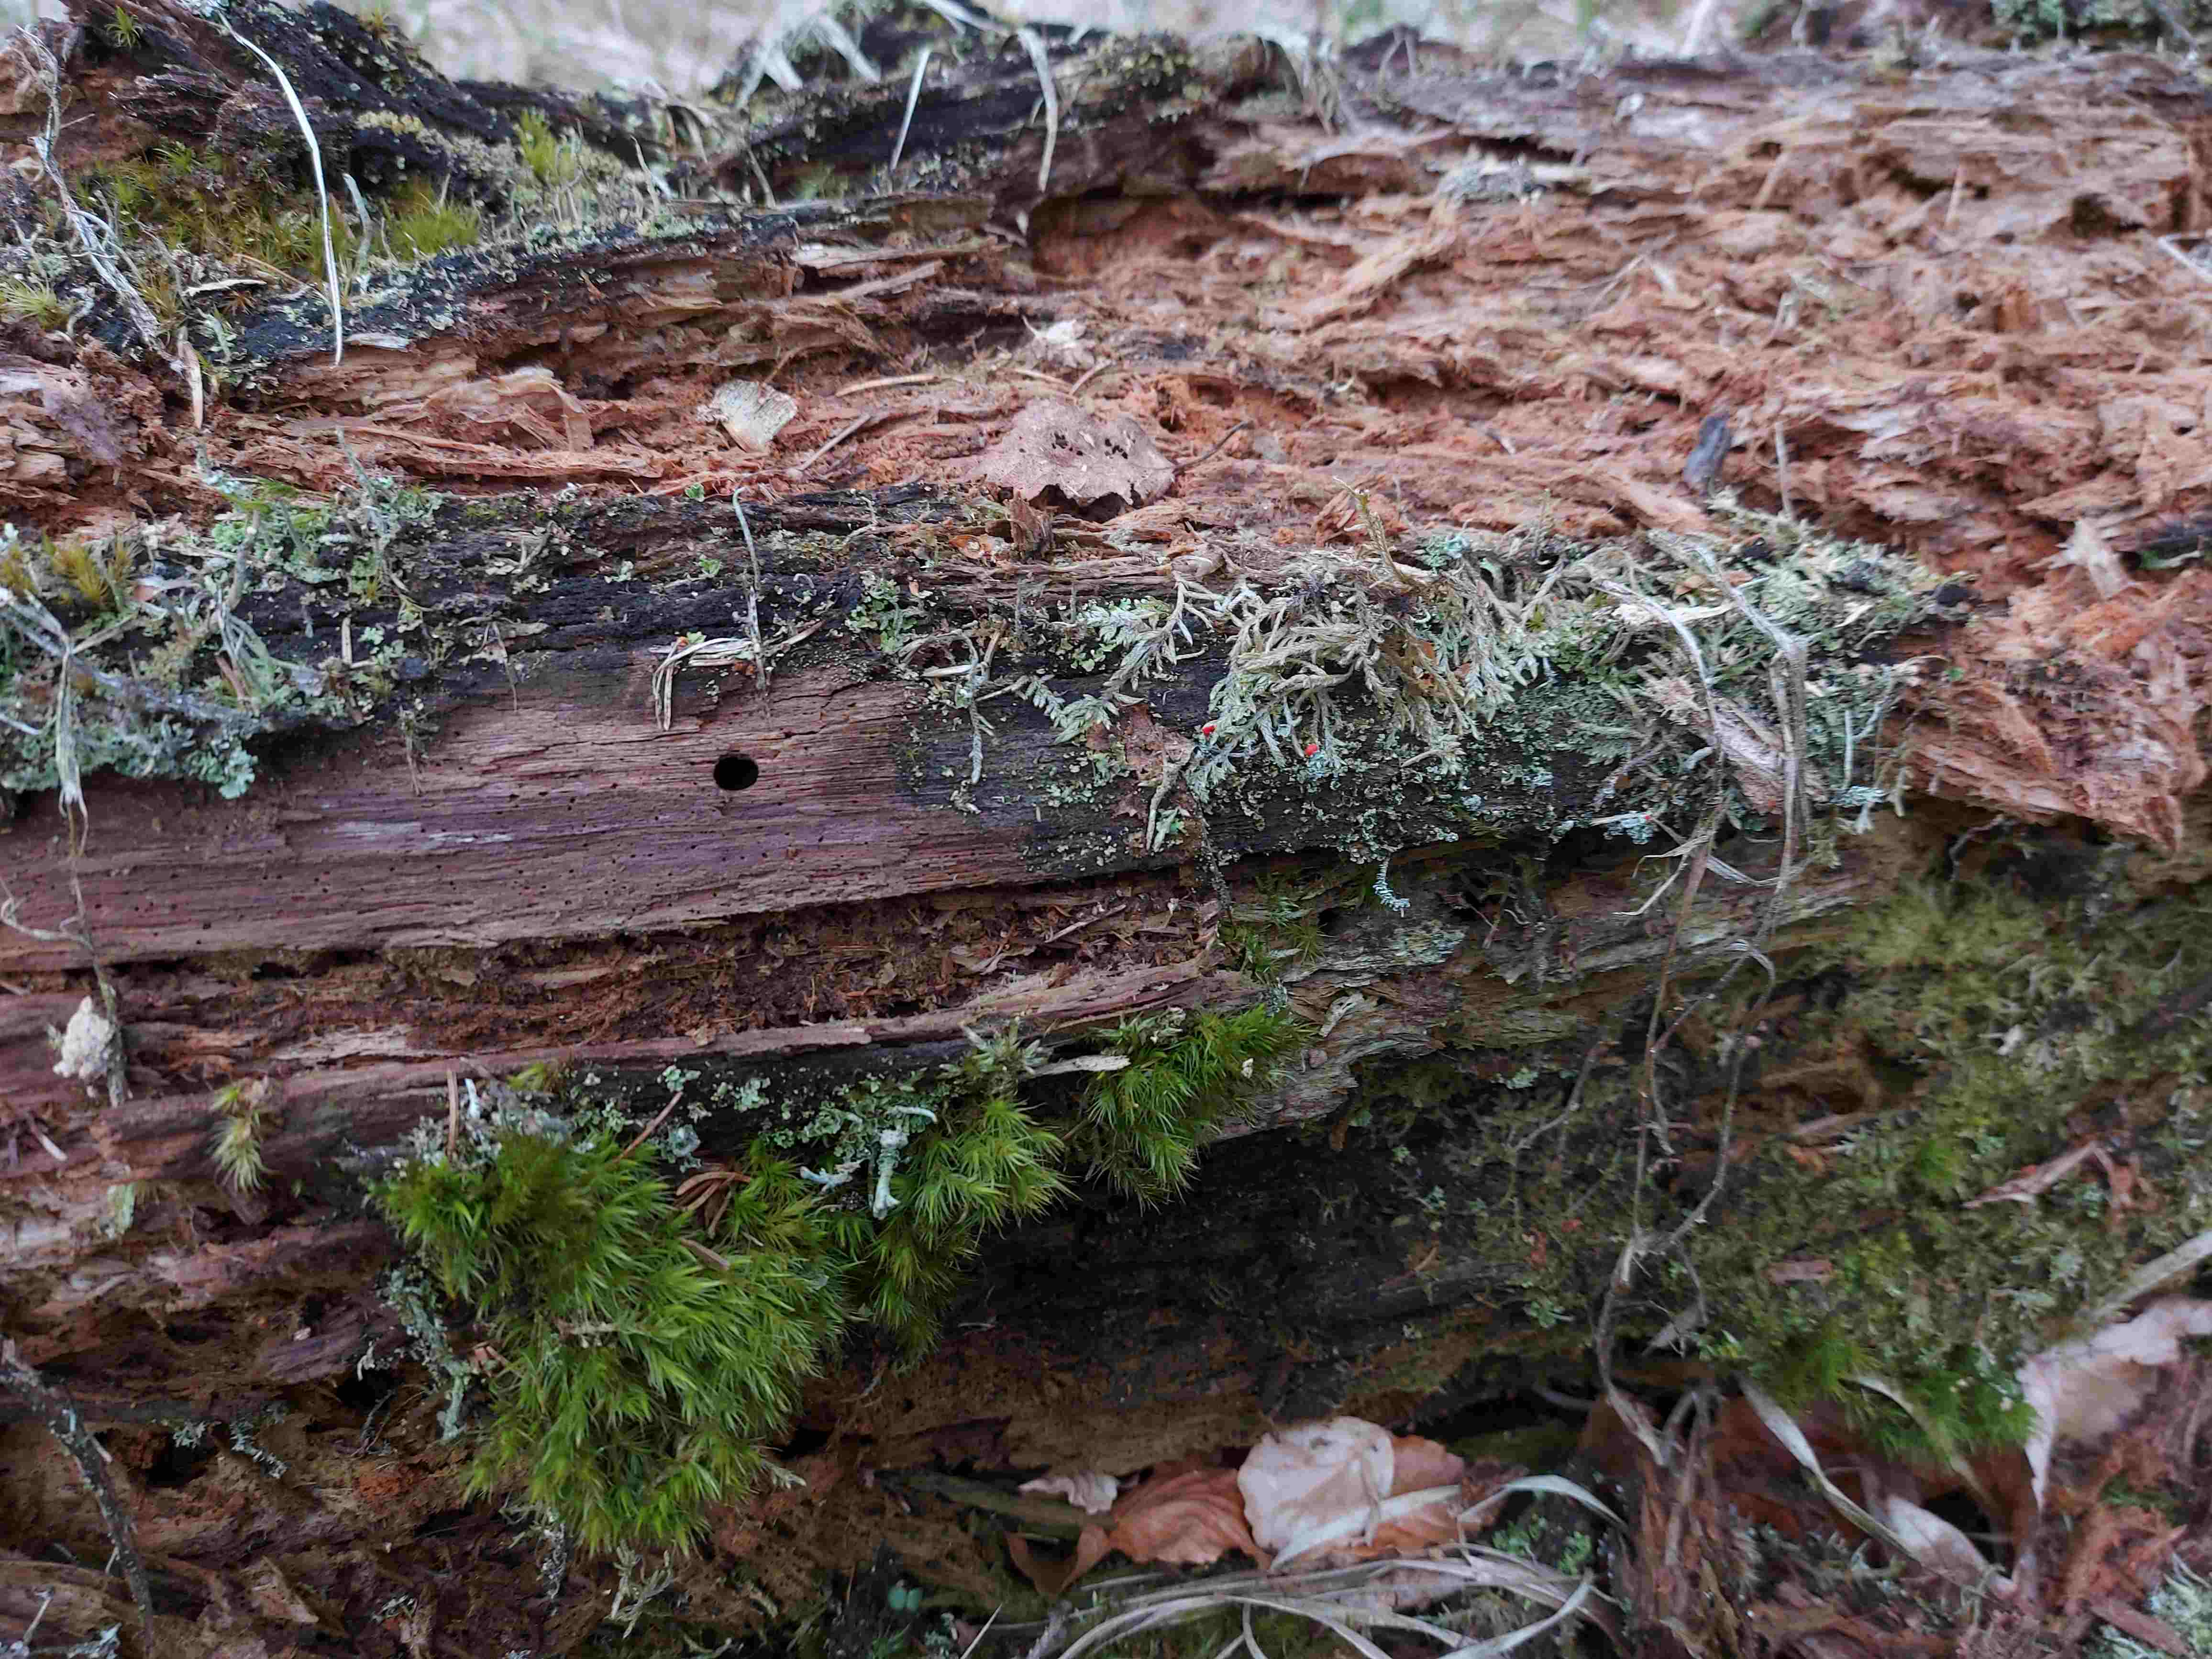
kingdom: Fungi
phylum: Ascomycota
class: Lecanoromycetes
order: Lecanorales
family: Cladoniaceae
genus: Cladonia
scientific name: Cladonia floerkeana
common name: lakrød bægerlav
